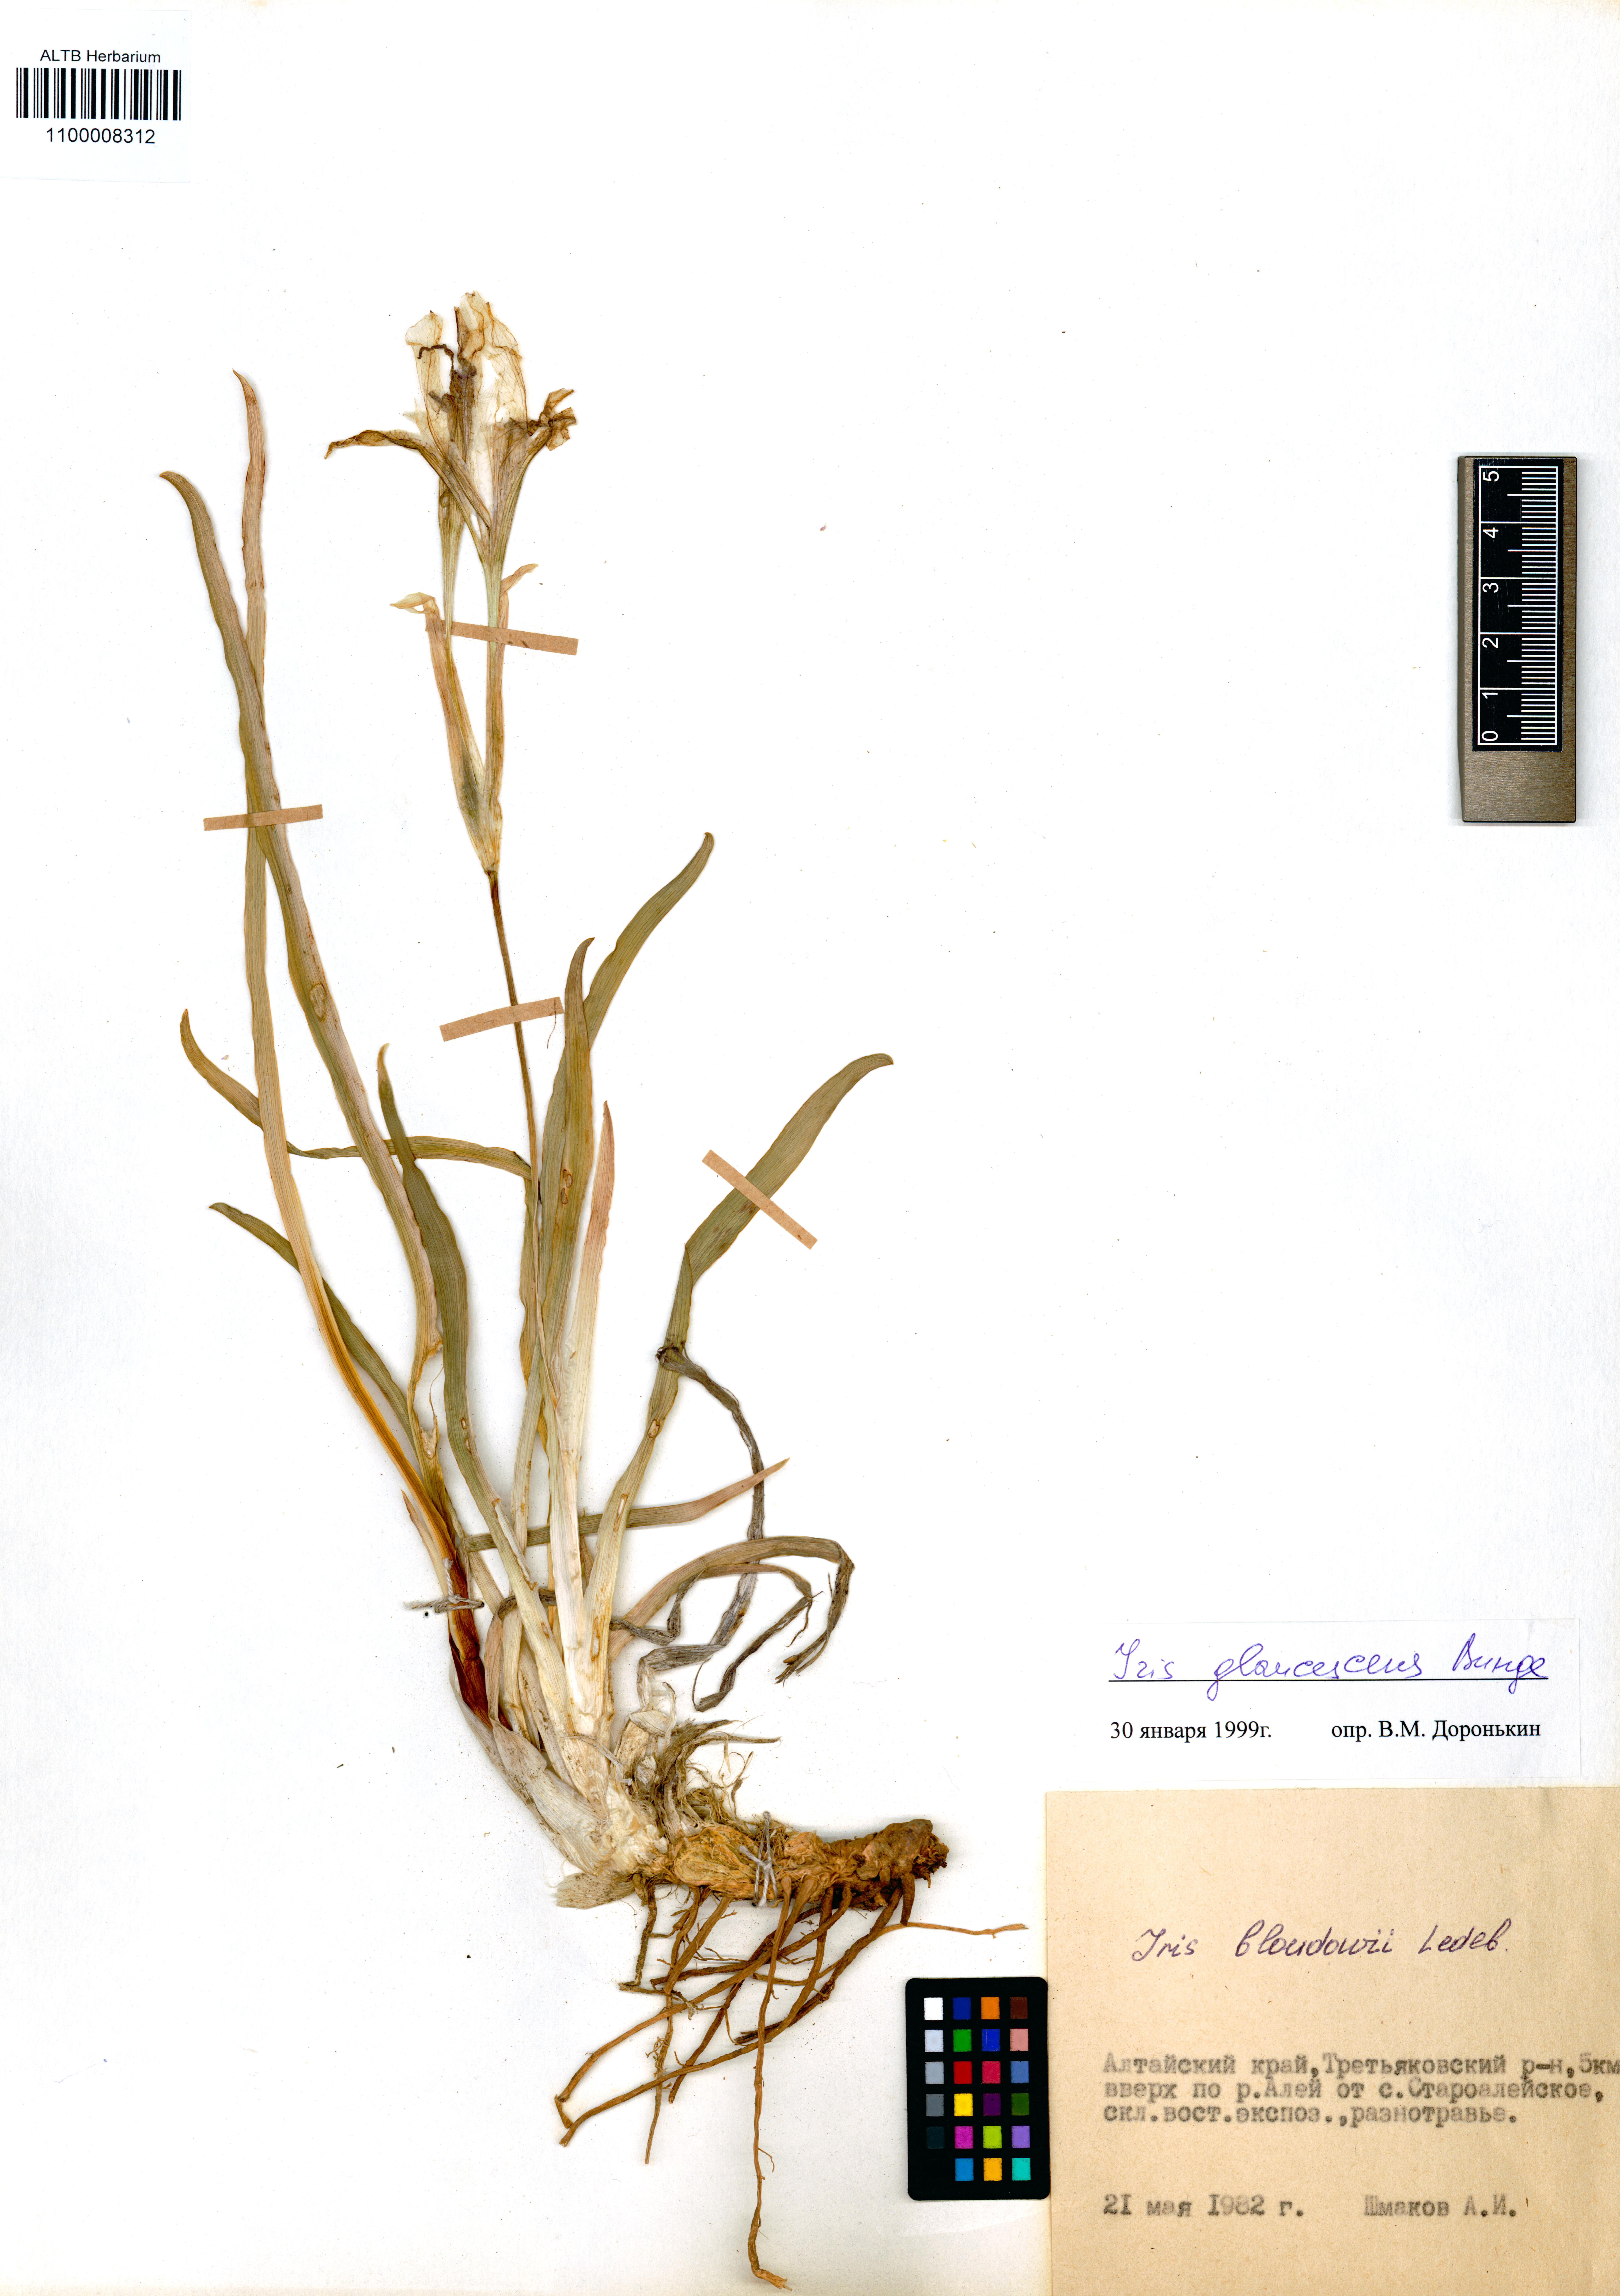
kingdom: Plantae
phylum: Tracheophyta
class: Liliopsida
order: Asparagales
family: Iridaceae
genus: Iris
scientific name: Iris glaucescens
